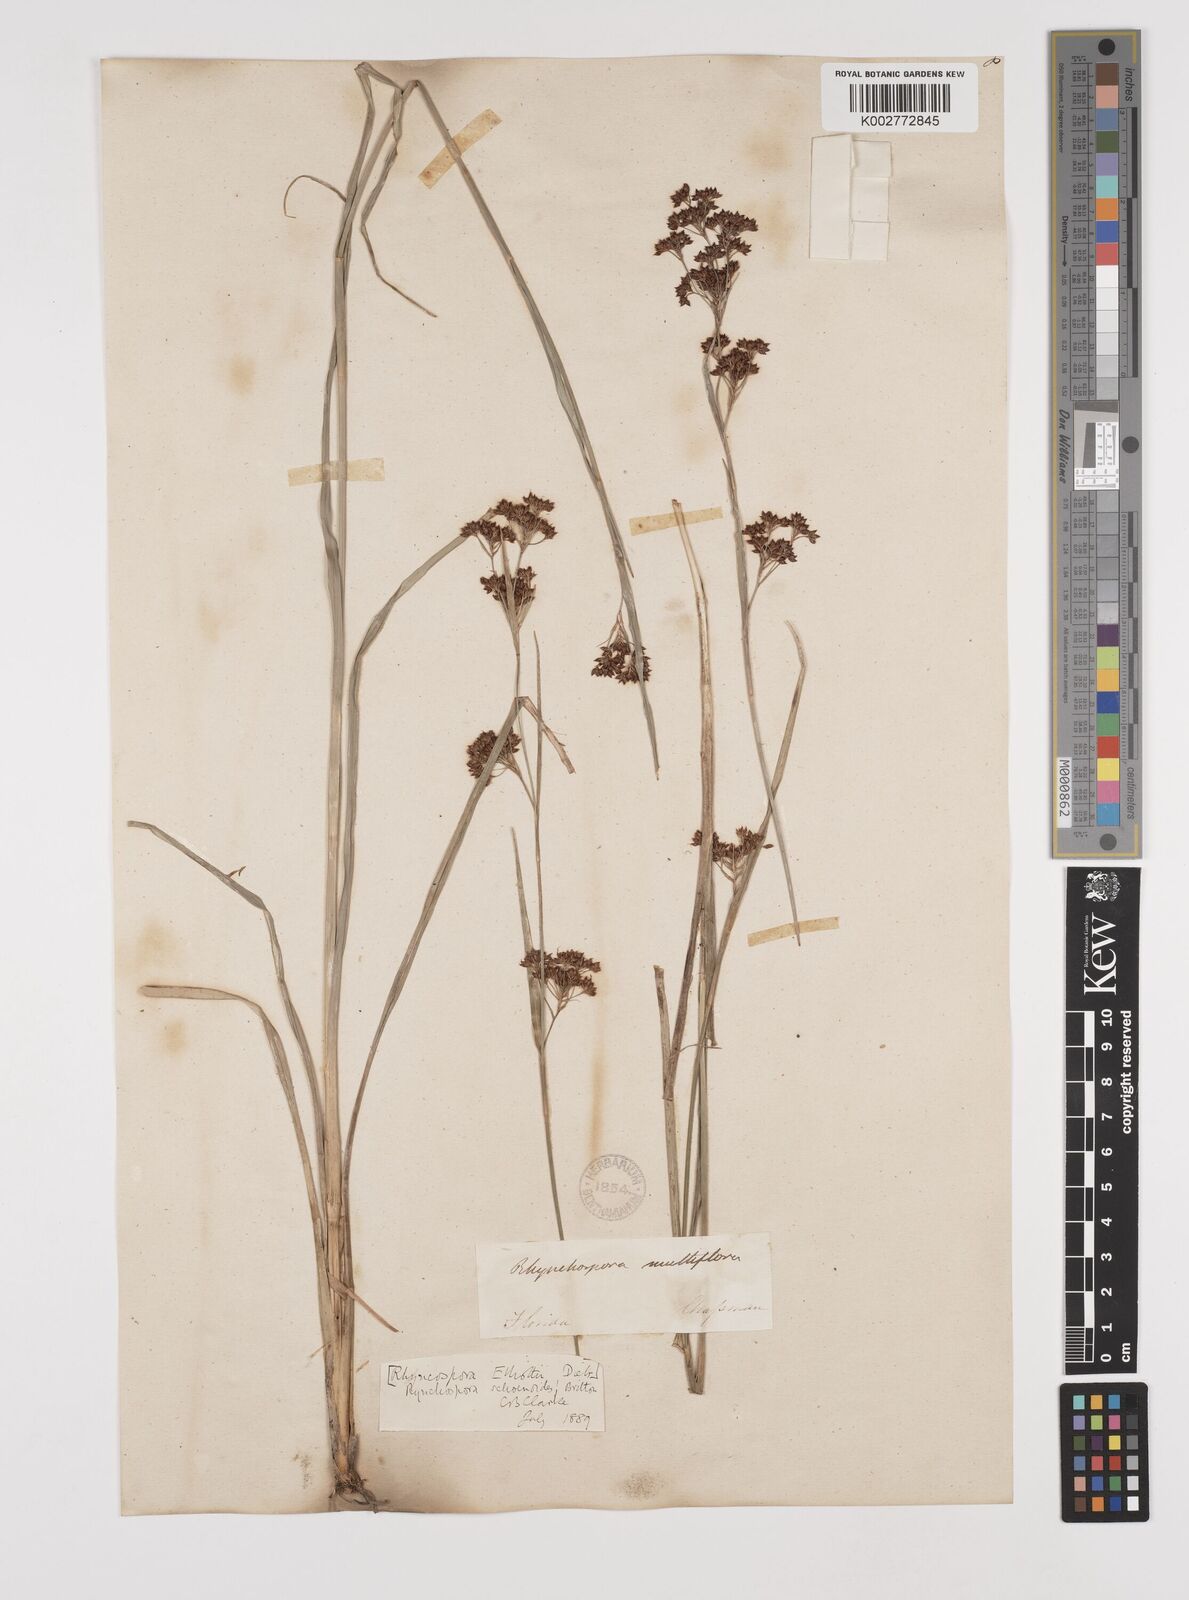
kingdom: Plantae
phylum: Tracheophyta
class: Liliopsida
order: Poales
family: Cyperaceae
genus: Rhynchospora
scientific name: Rhynchospora holoschoenoides
